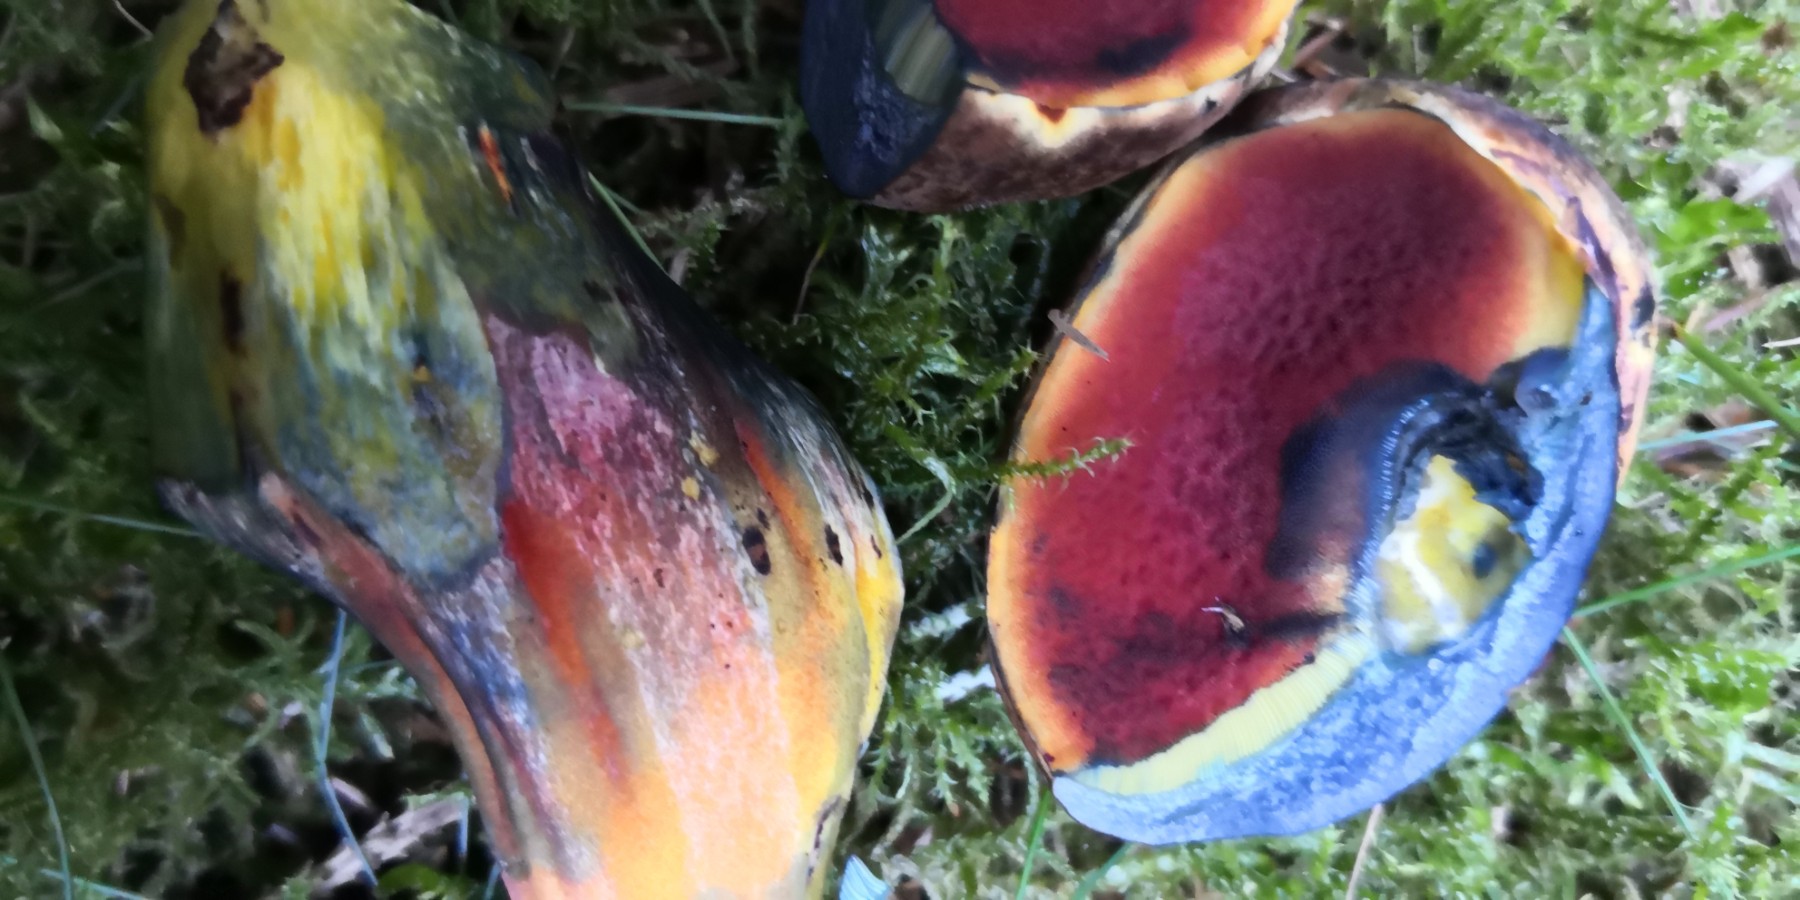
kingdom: Fungi
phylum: Basidiomycota
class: Agaricomycetes
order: Boletales
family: Boletaceae
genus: Neoboletus
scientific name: Neoboletus erythropus
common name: punktstokket indigorørhat
